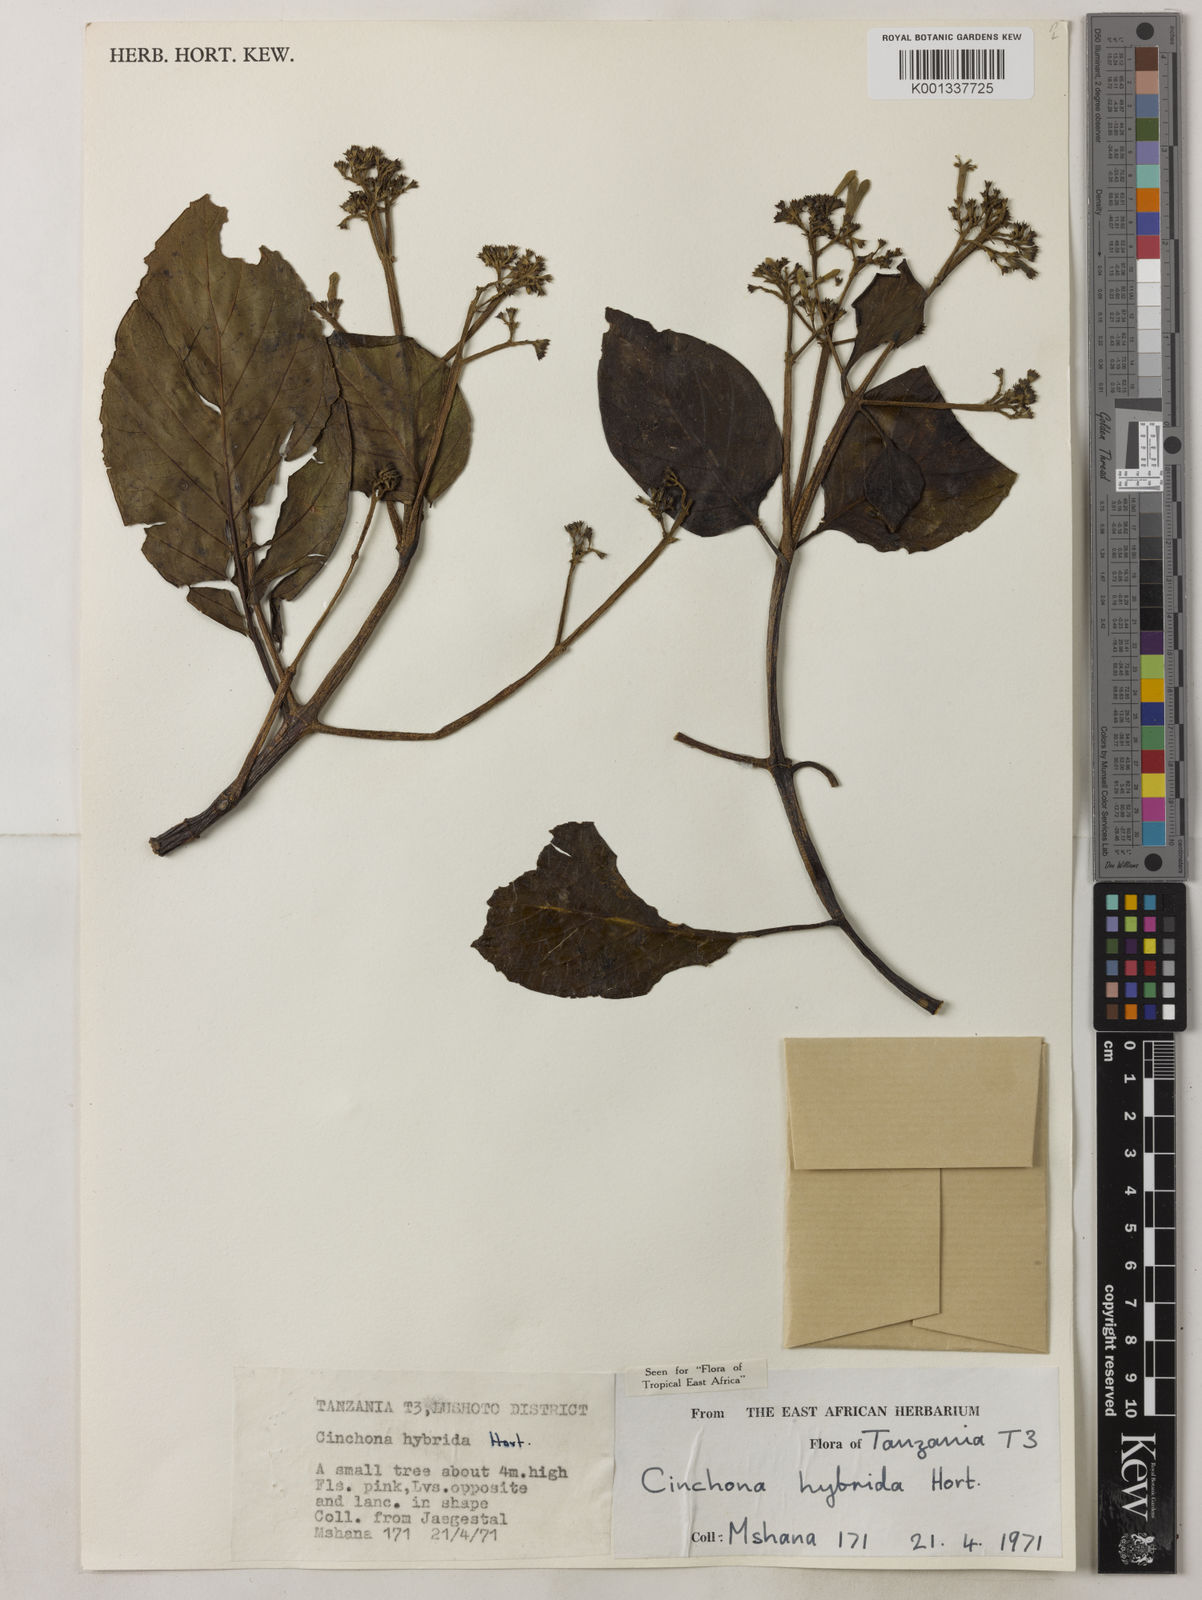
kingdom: Plantae
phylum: Tracheophyta
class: Magnoliopsida
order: Gentianales
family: Rubiaceae
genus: Cinchona
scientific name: Cinchona
